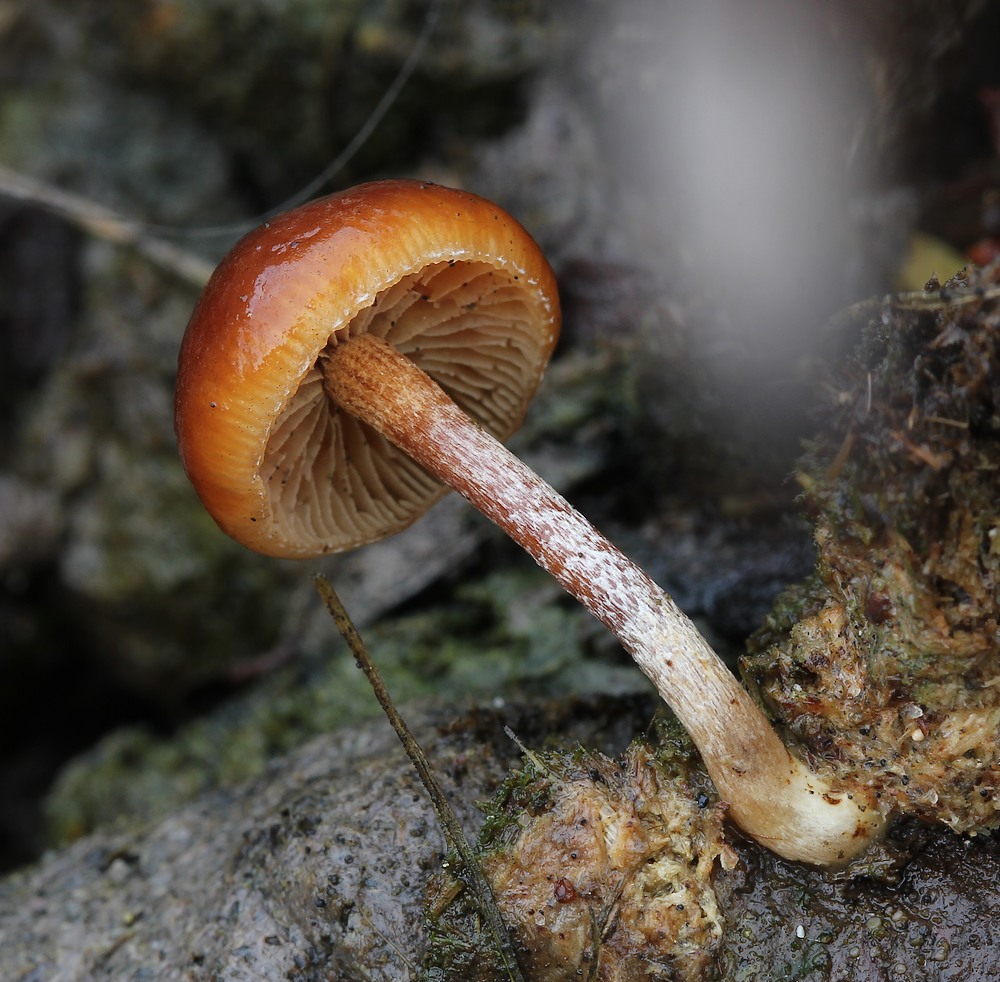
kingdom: Fungi
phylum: Basidiomycota
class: Agaricomycetes
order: Agaricales
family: Strophariaceae
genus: Deconica
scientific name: Deconica
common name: stråhat
